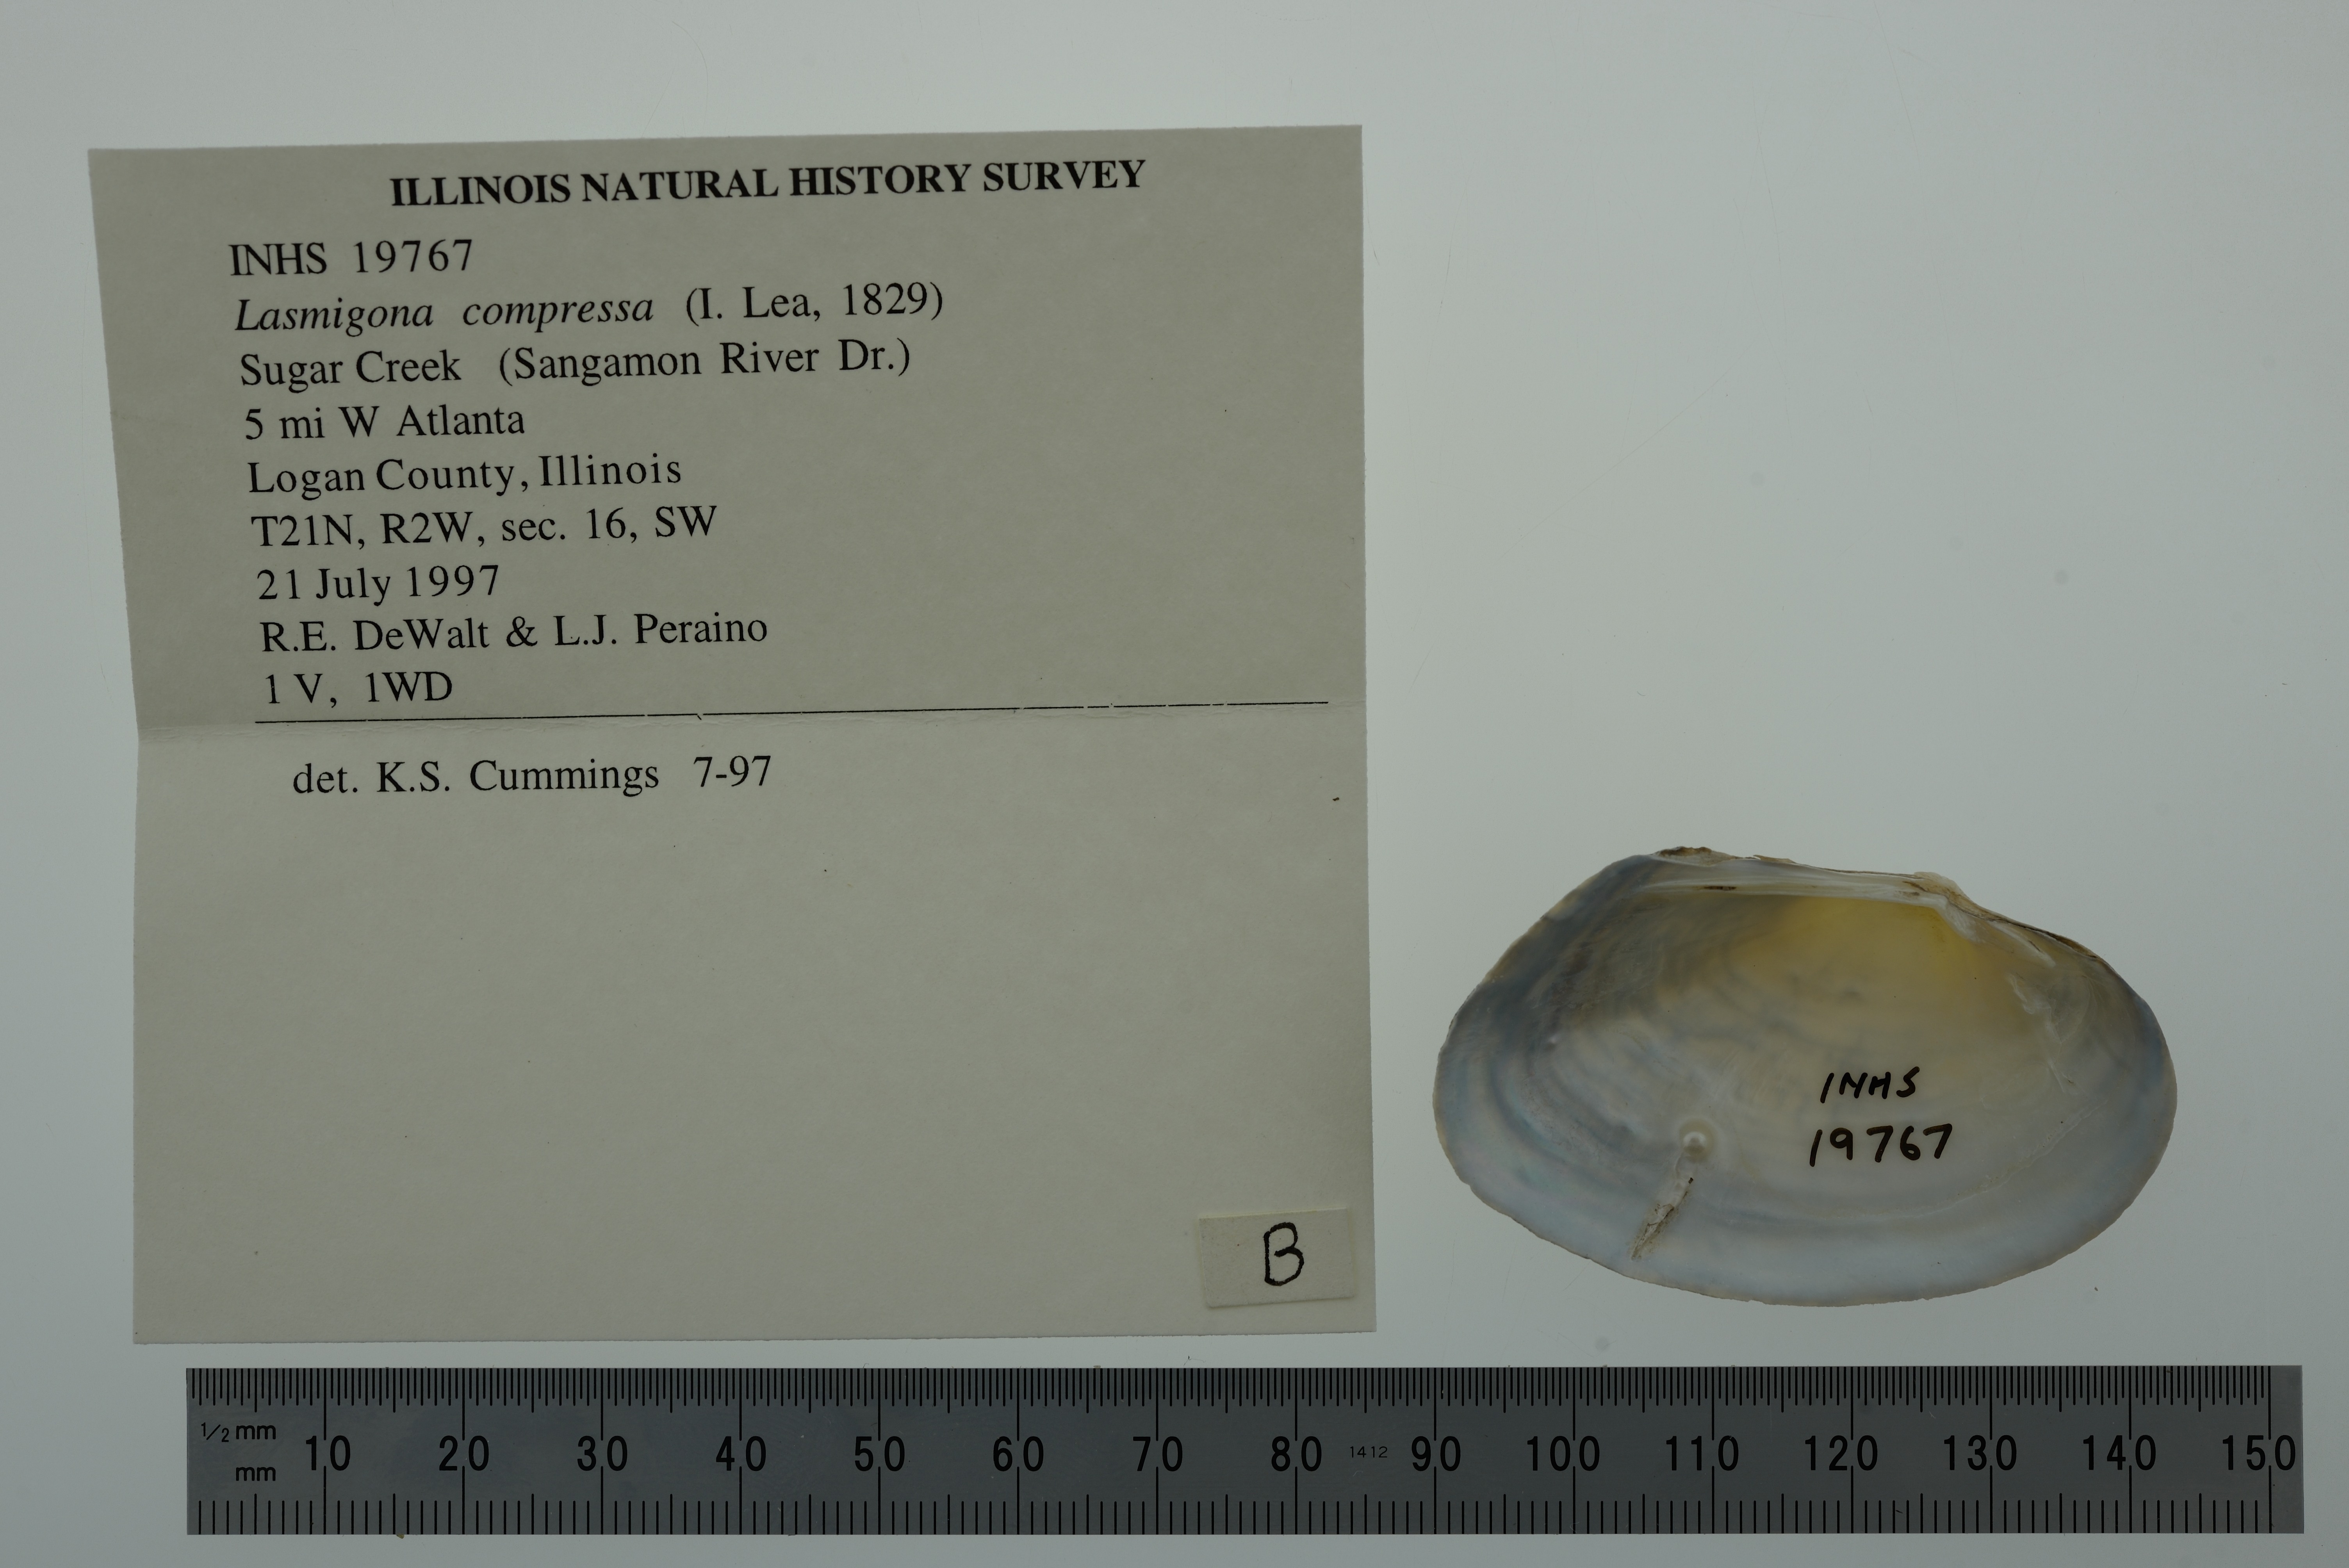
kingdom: Animalia
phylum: Mollusca
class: Bivalvia
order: Unionida
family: Unionidae
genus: Lasmigona
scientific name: Lasmigona compressa
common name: Creek heelsplitter
